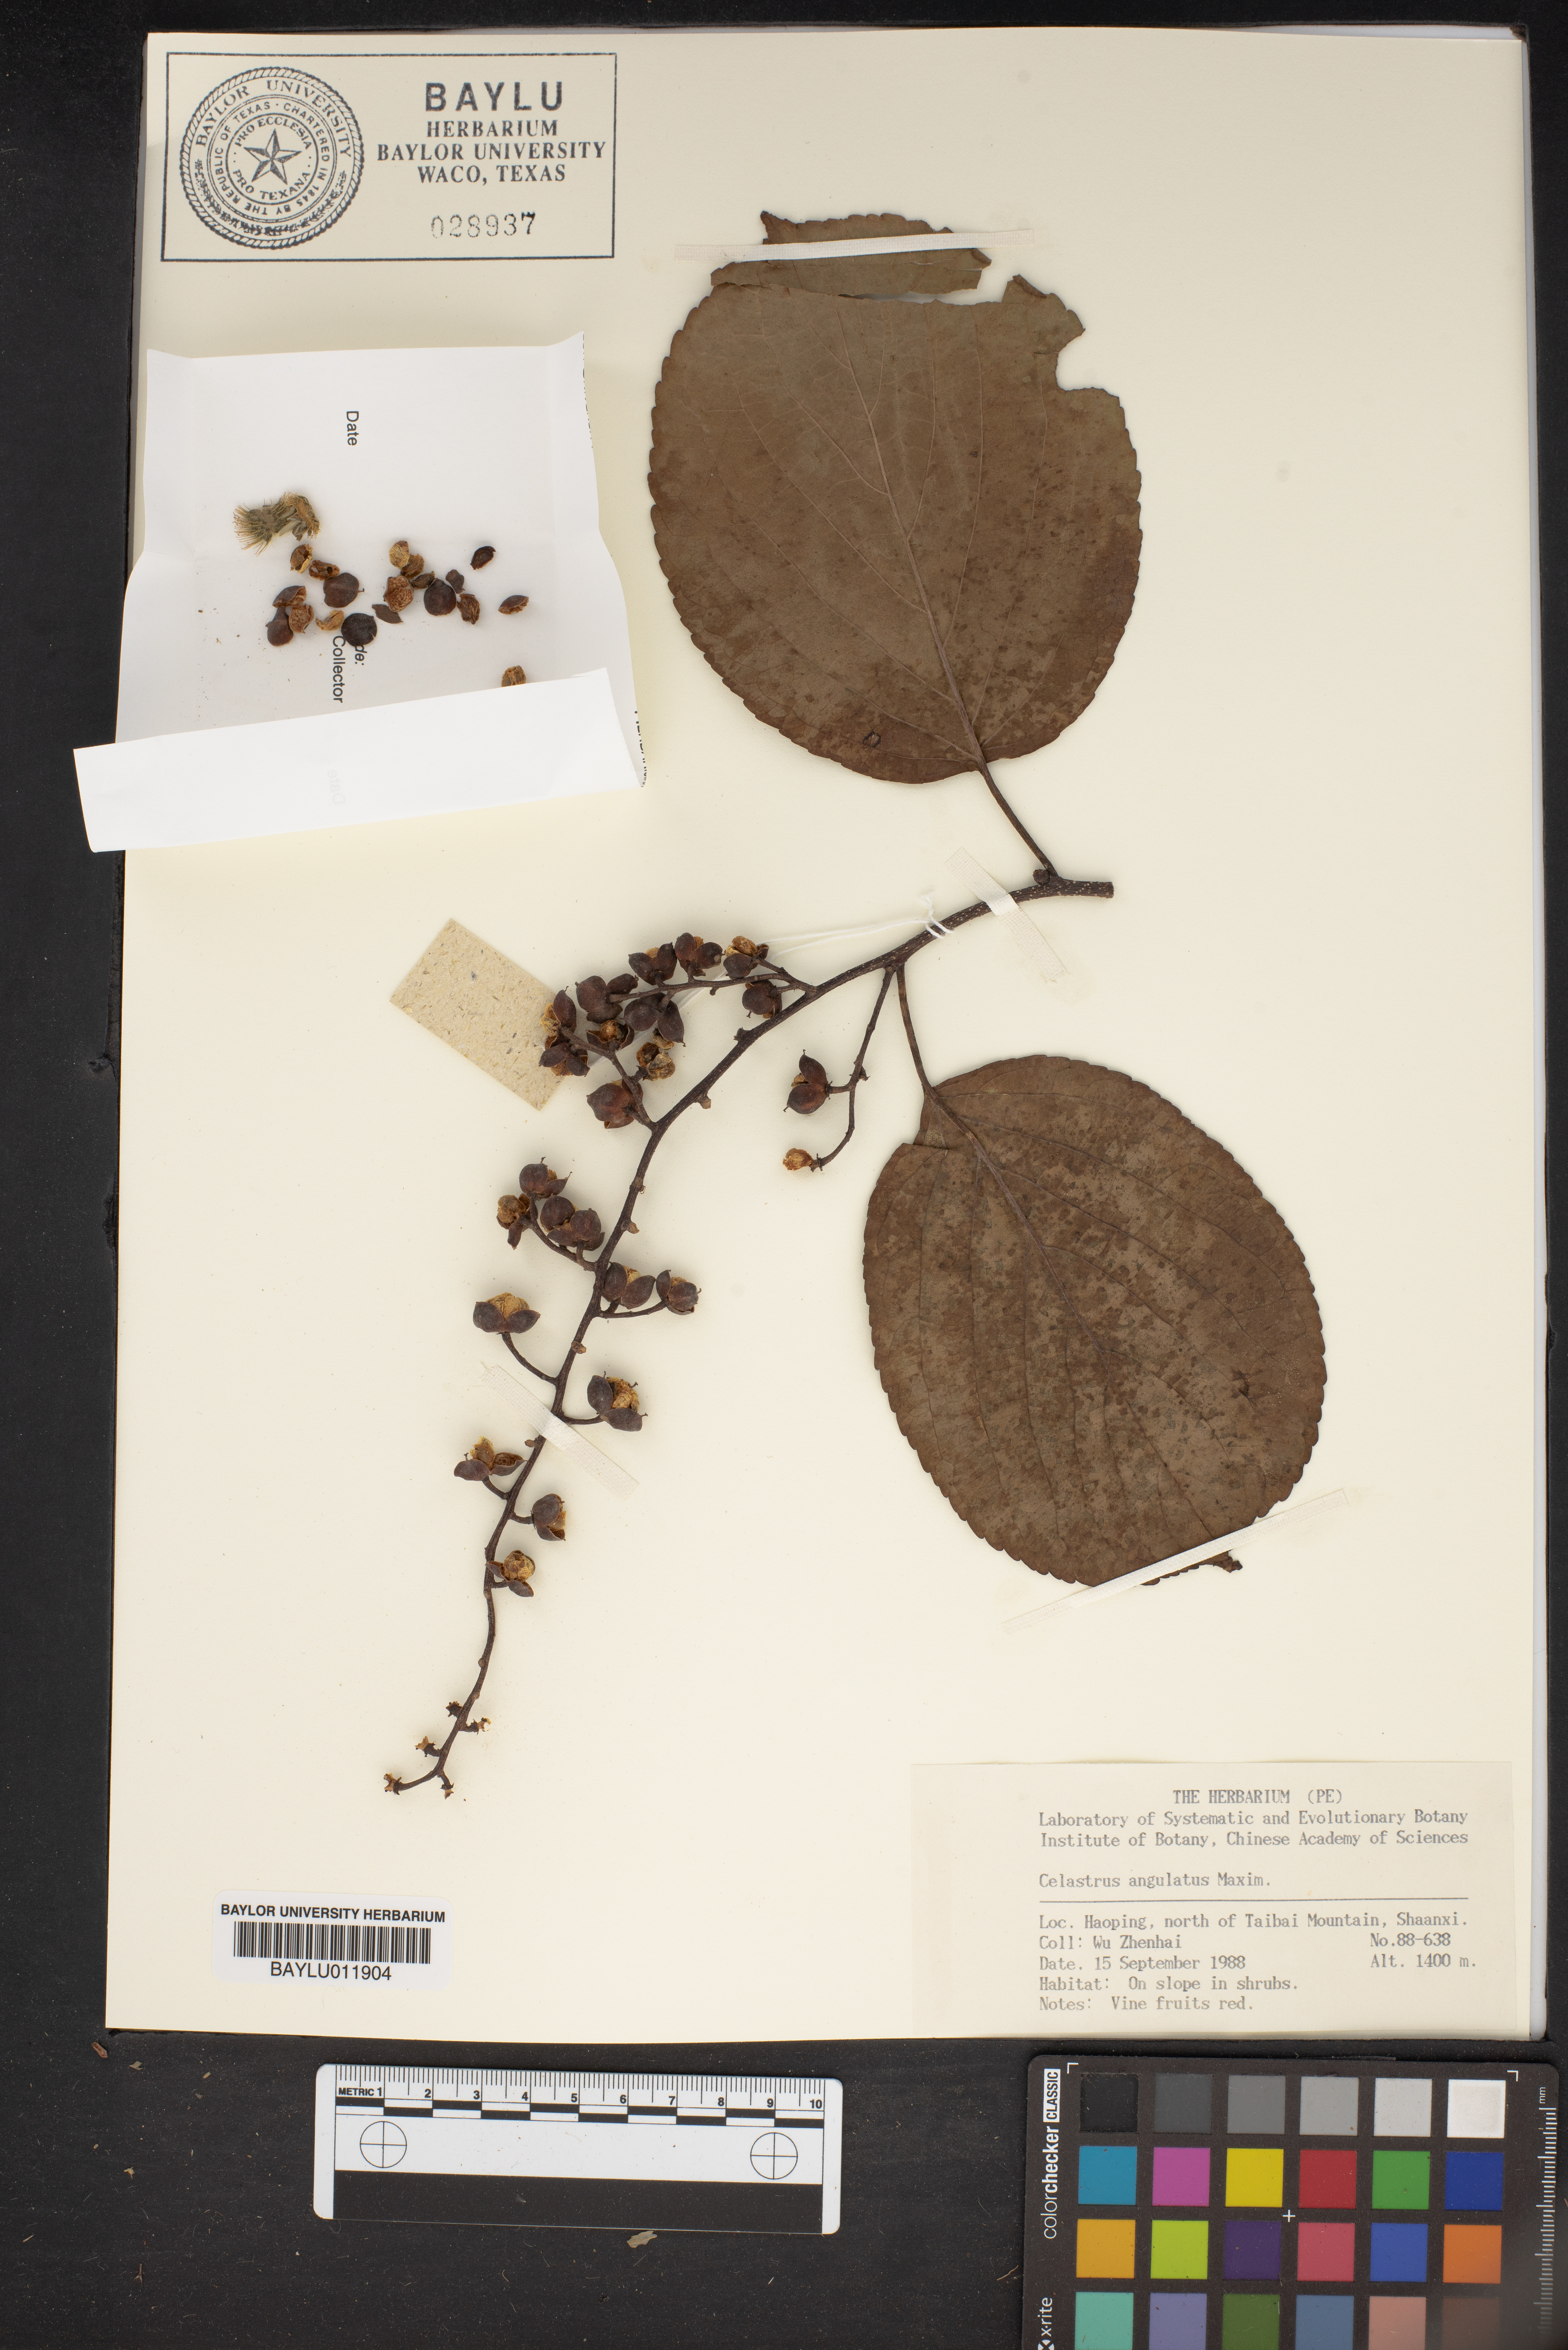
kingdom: Plantae
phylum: Tracheophyta
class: Magnoliopsida
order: Celastrales
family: Celastraceae
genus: Celastrus
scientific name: Celastrus angulatus
